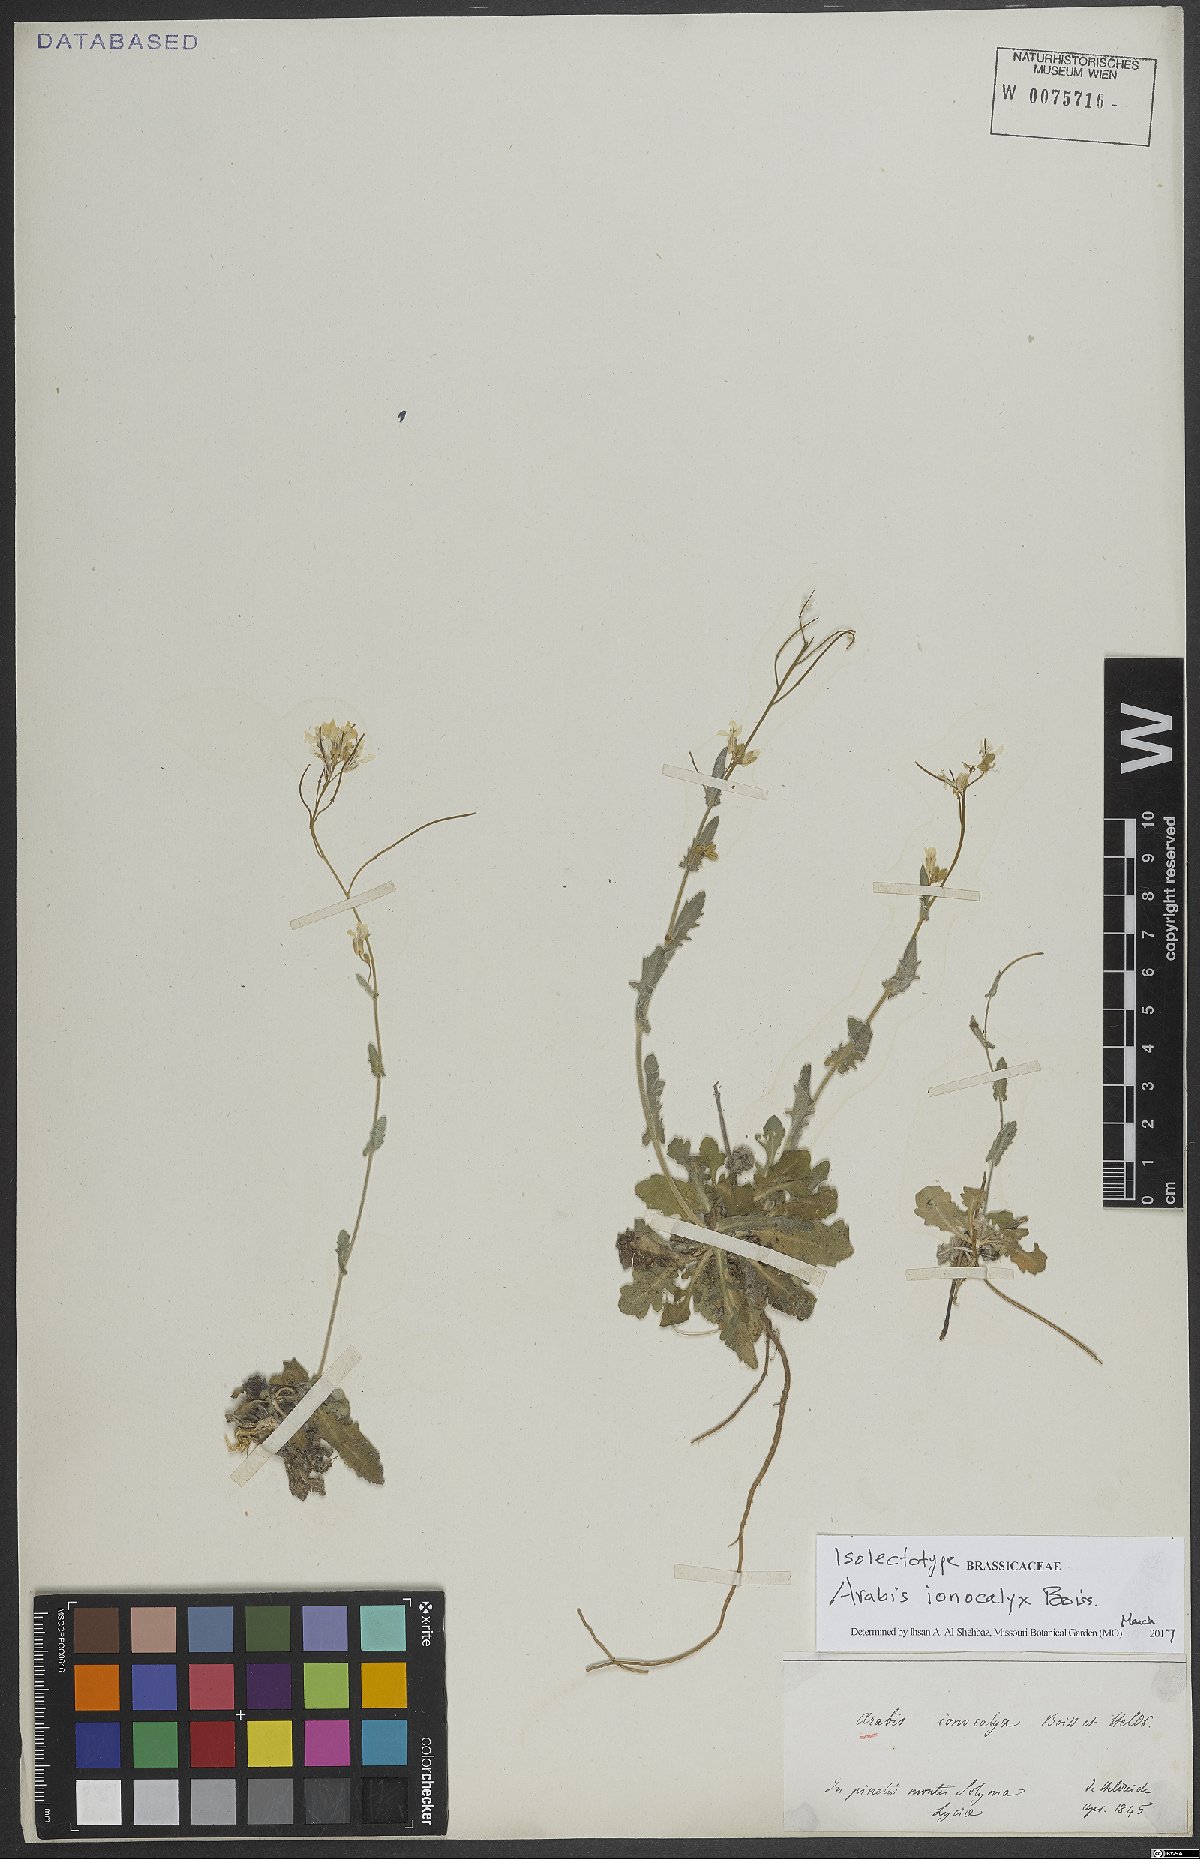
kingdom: Plantae
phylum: Tracheophyta
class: Magnoliopsida
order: Brassicales
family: Brassicaceae
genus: Arabis
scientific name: Arabis ionocalyx
